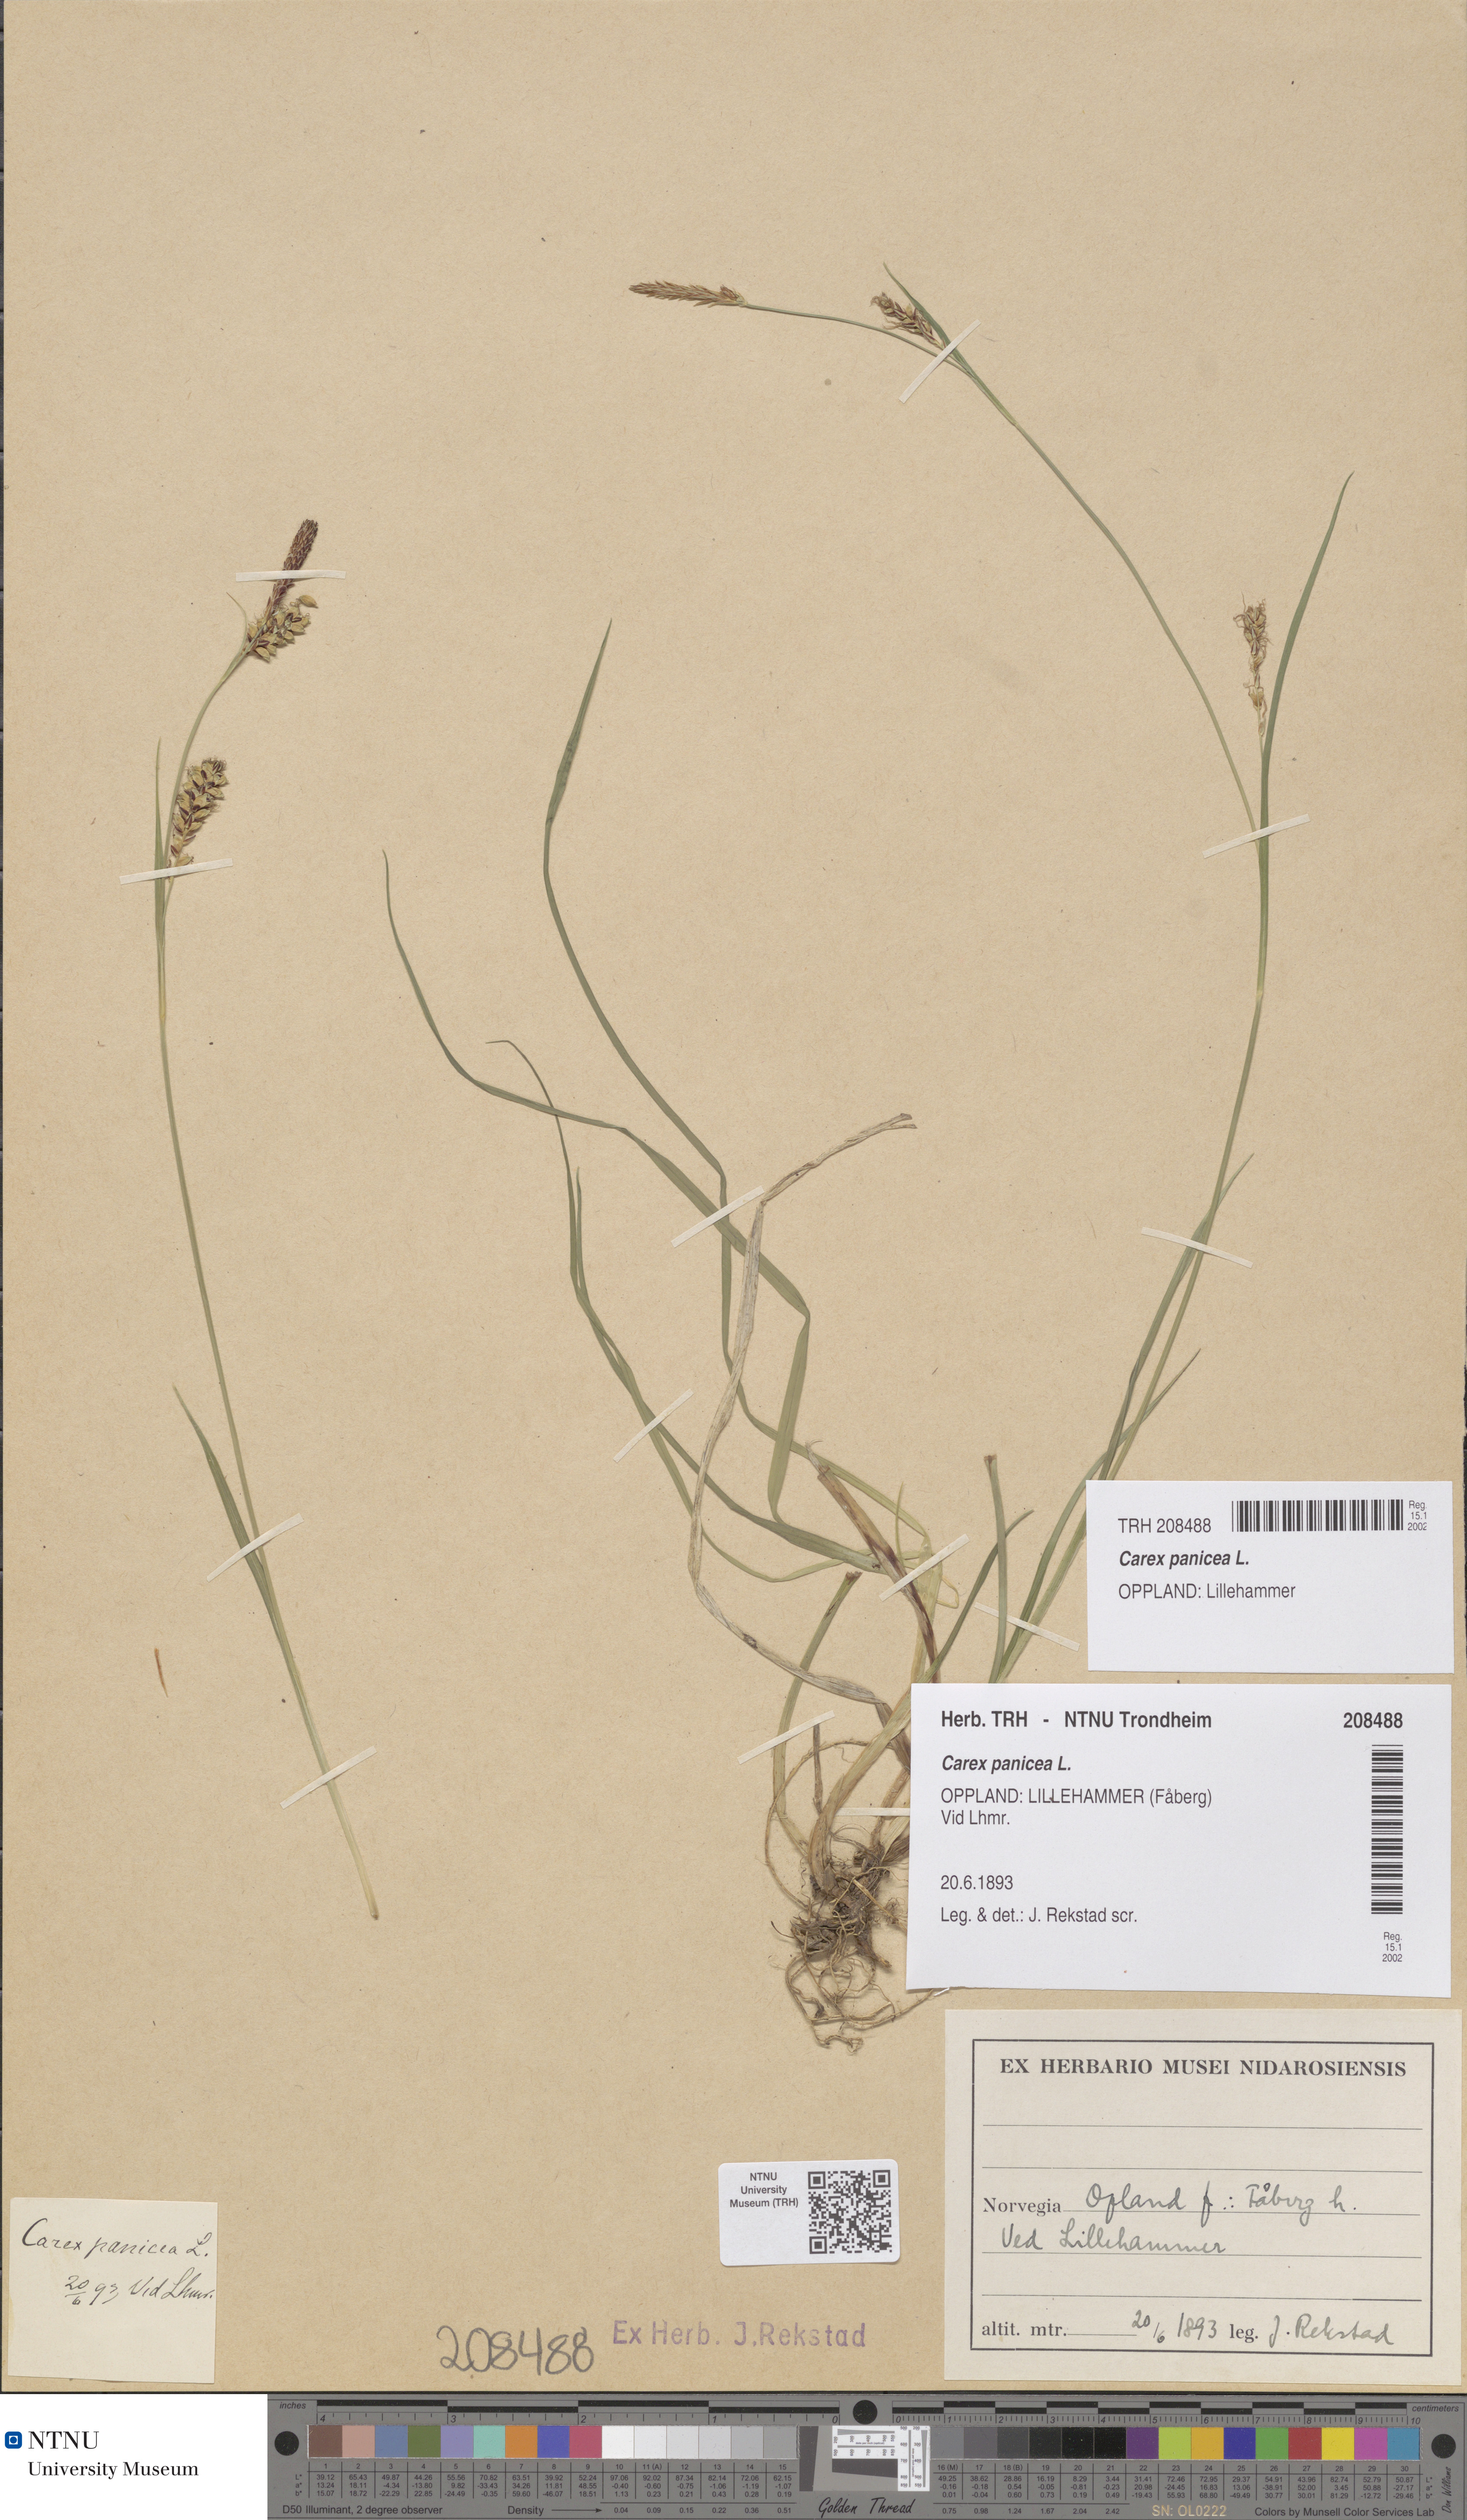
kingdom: Plantae
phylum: Tracheophyta
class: Liliopsida
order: Poales
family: Cyperaceae
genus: Carex
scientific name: Carex panicea
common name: Carnation sedge
